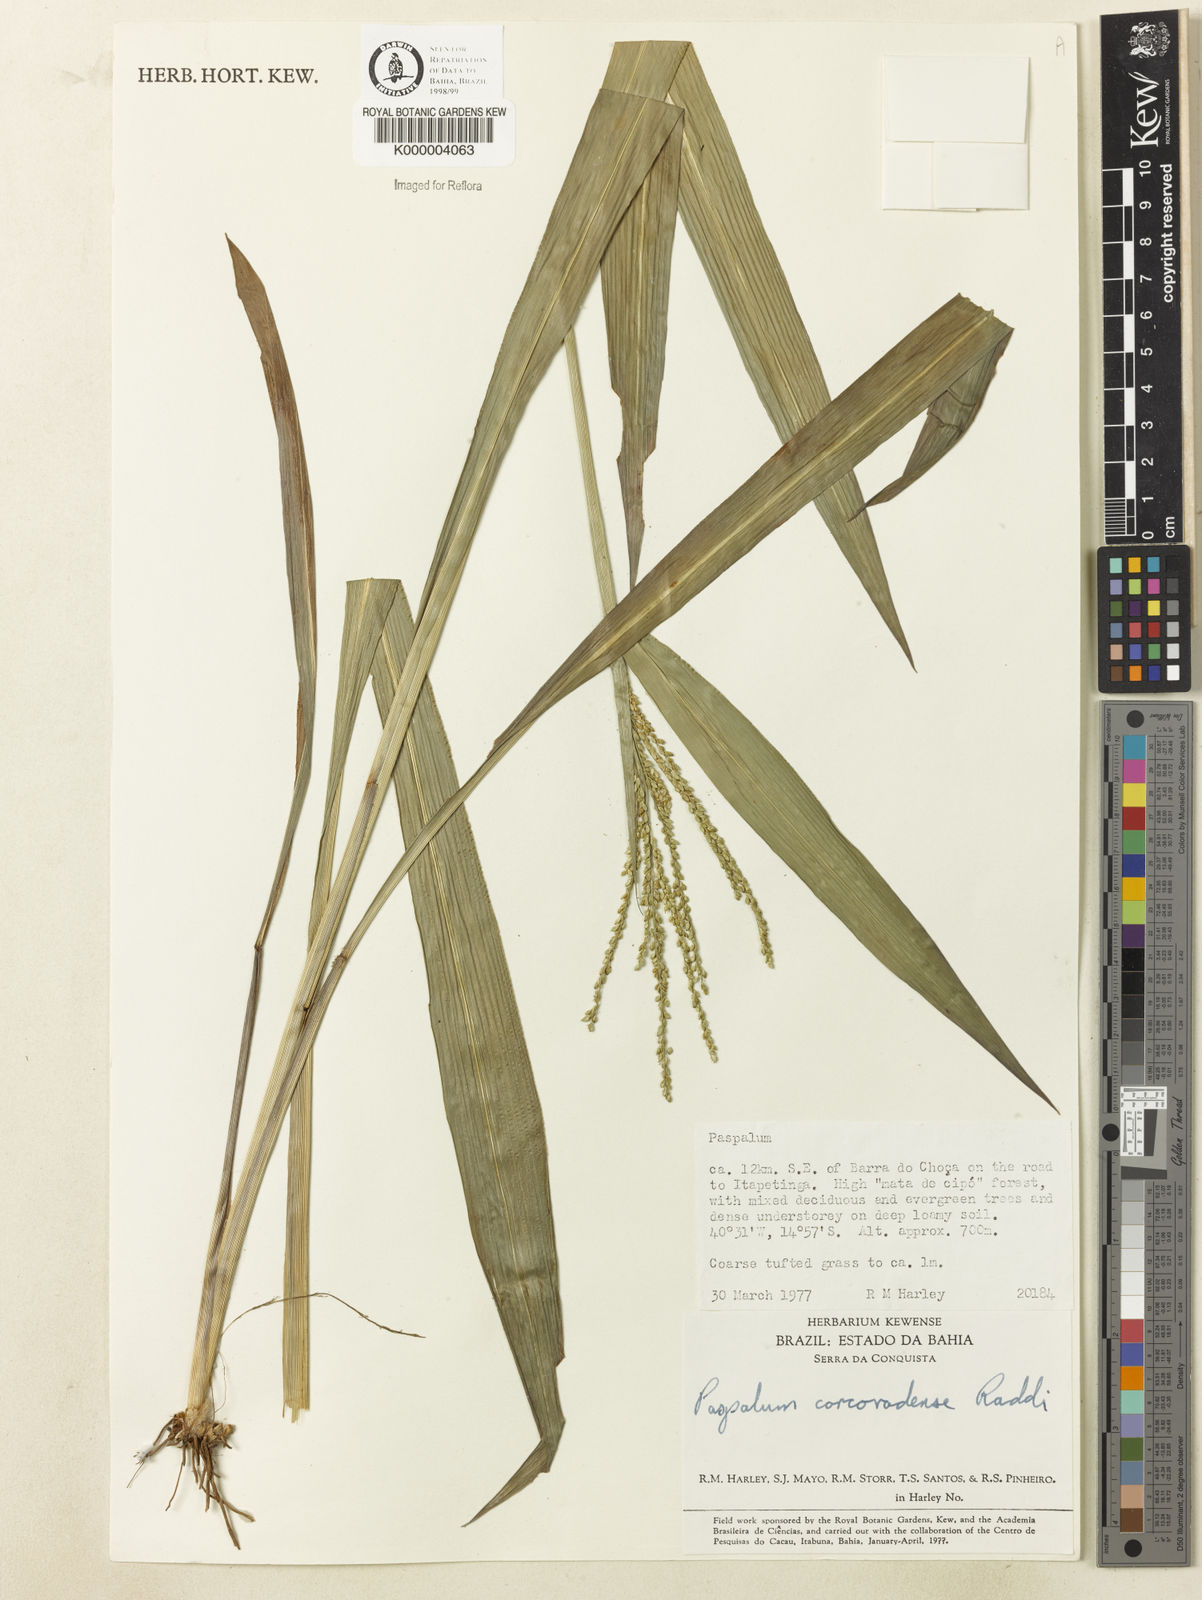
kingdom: Plantae
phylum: Tracheophyta
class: Liliopsida
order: Poales
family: Poaceae
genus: Paspalum
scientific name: Paspalum corcovadense
